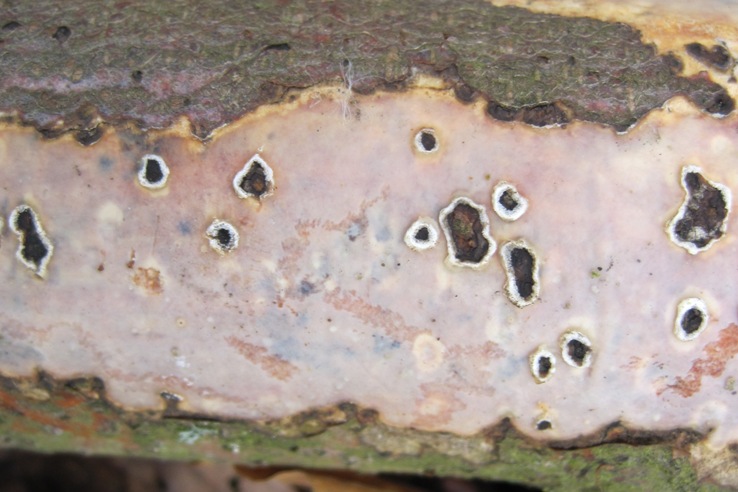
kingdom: Fungi
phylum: Basidiomycota
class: Agaricomycetes
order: Corticiales
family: Vuilleminiaceae
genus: Vuilleminia
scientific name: Vuilleminia comedens
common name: almindelig barksprænger
